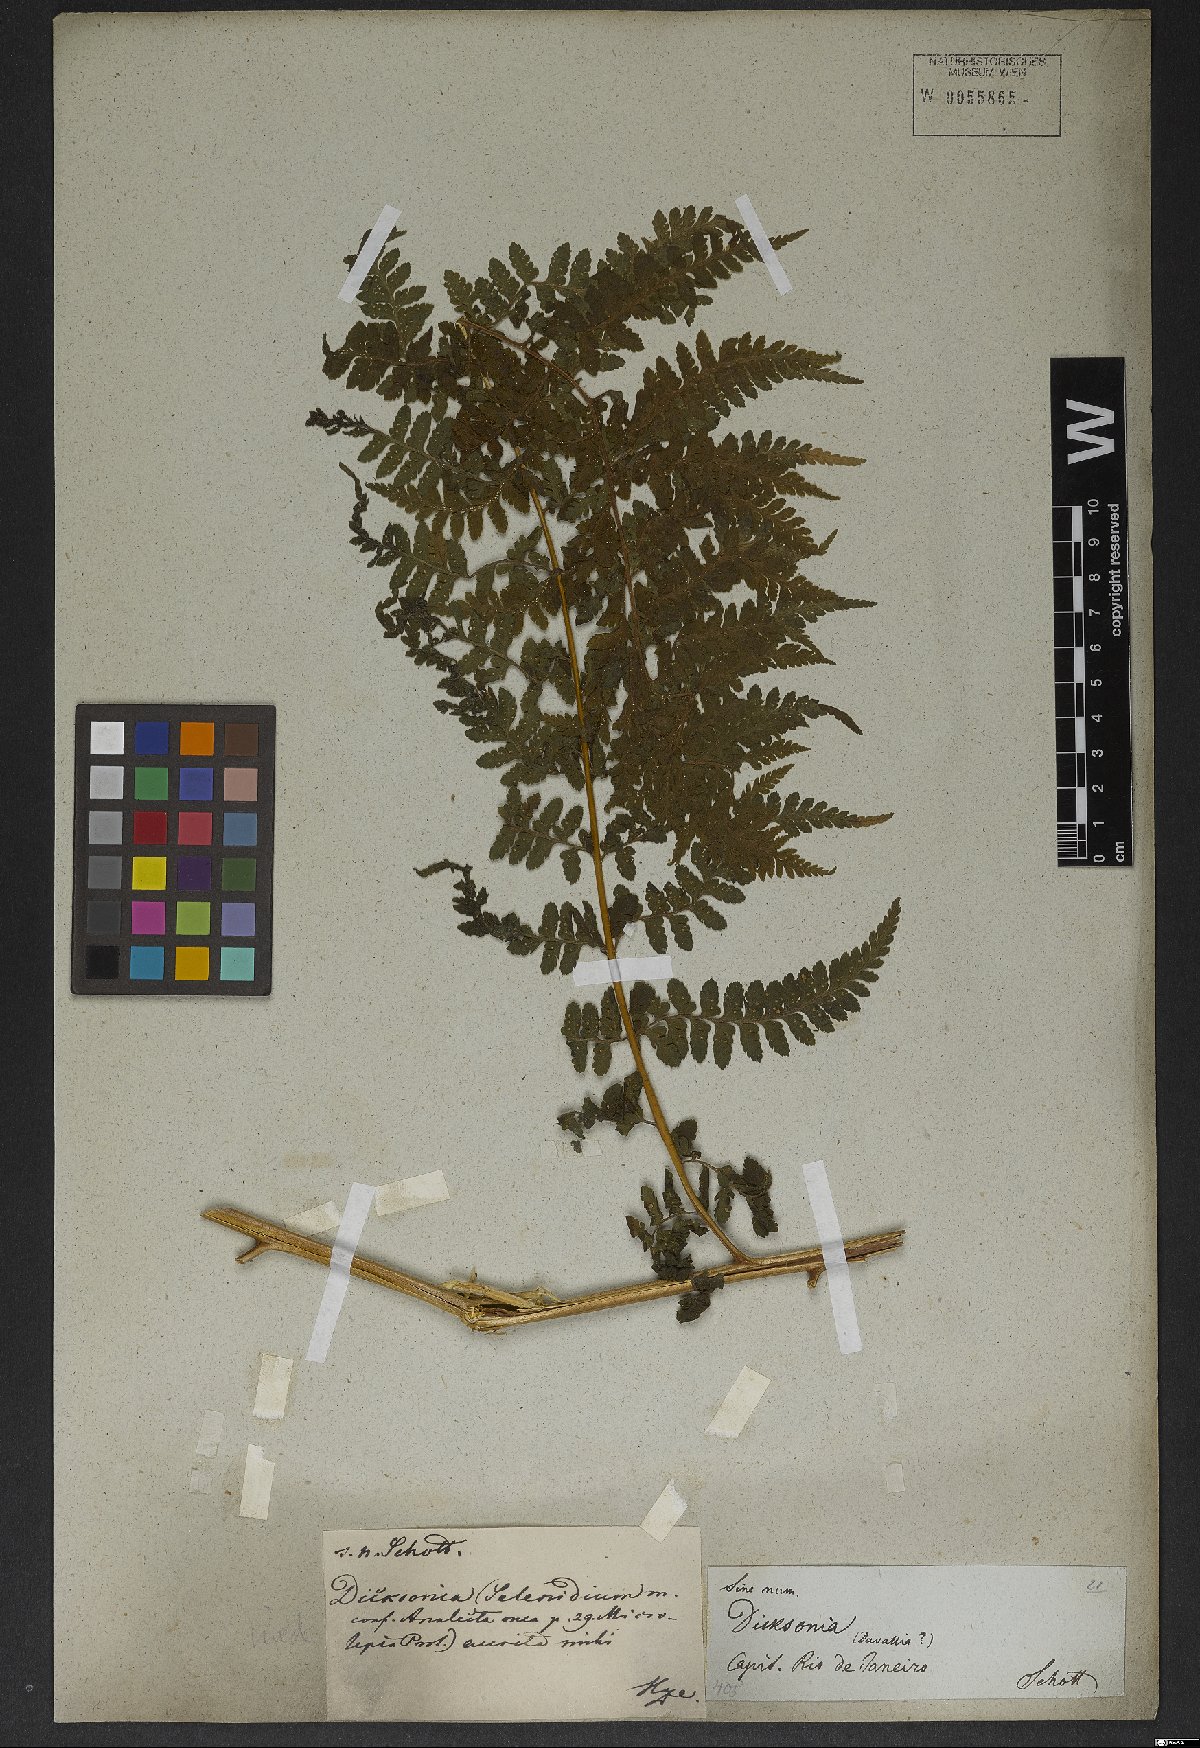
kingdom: Plantae
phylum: Tracheophyta
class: Polypodiopsida
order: Polypodiales
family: Dennstaedtiaceae
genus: Microlepia
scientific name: Microlepia speluncae
